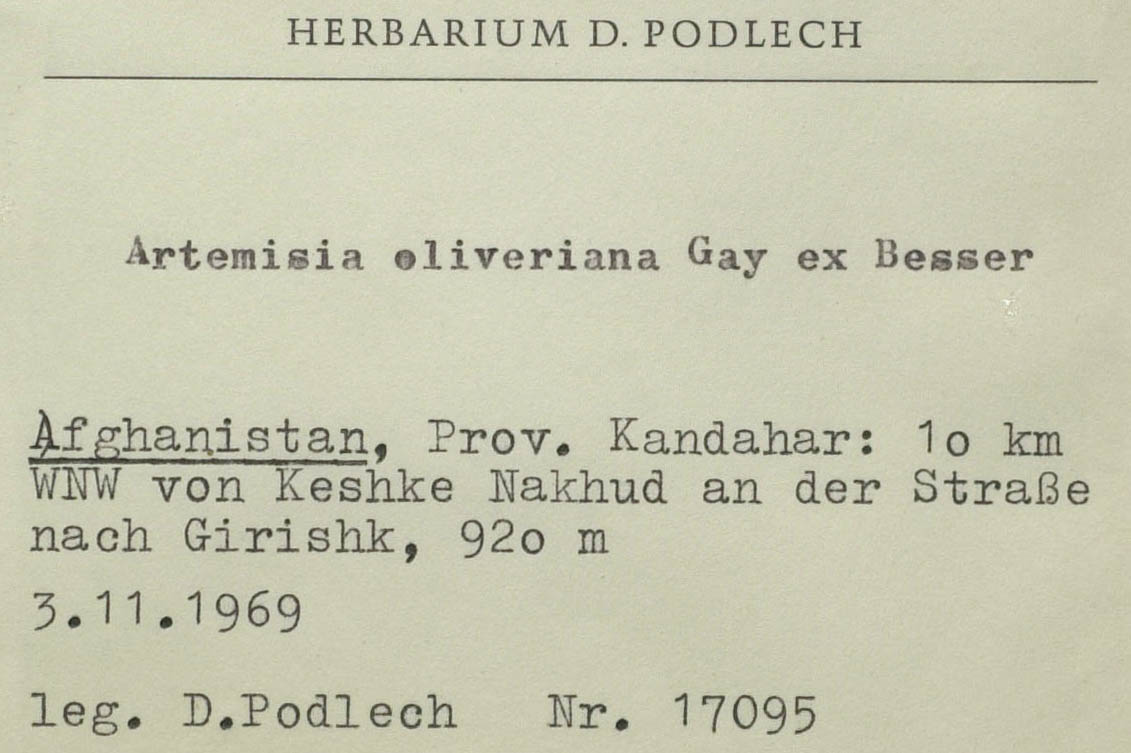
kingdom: Plantae
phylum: Tracheophyta
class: Magnoliopsida
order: Asterales
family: Asteraceae
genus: Artemisia
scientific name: Artemisia dumosa
